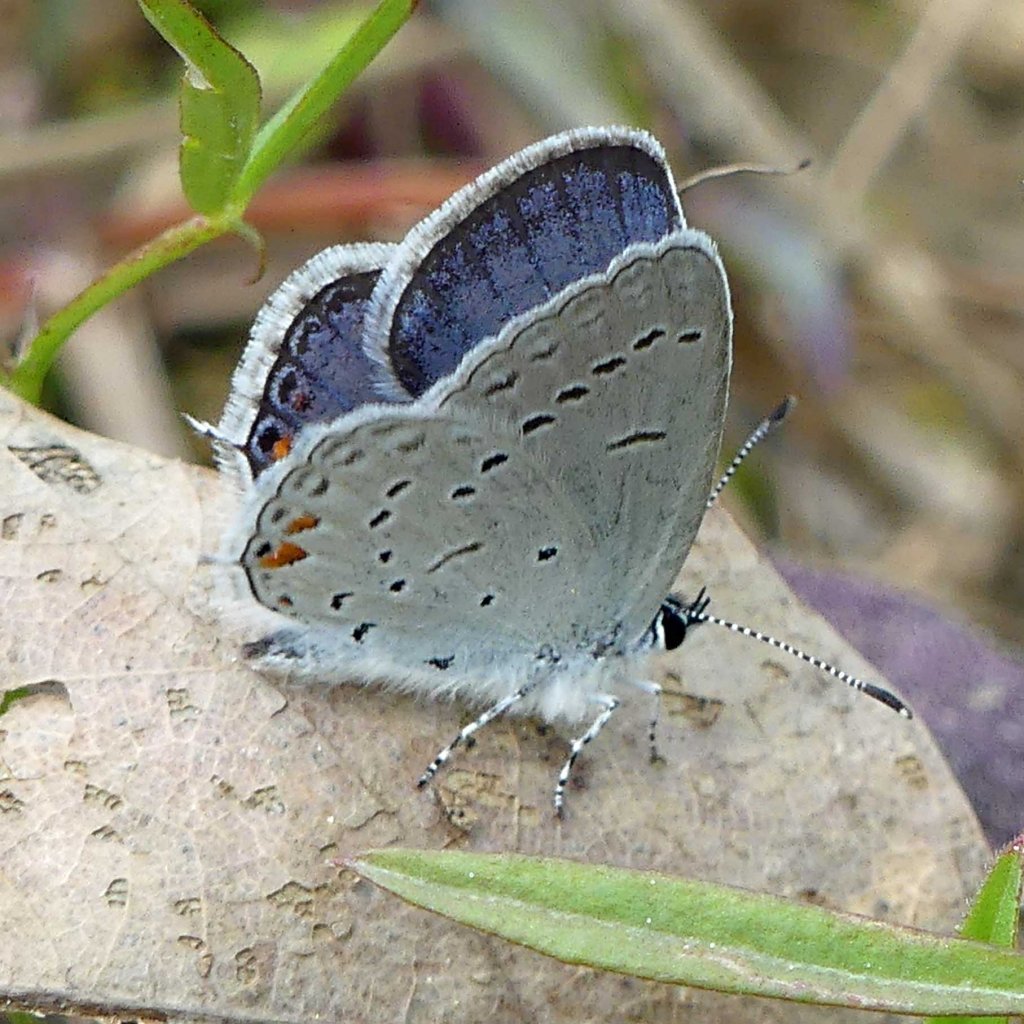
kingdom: Animalia
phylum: Arthropoda
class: Insecta
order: Lepidoptera
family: Lycaenidae
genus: Elkalyce
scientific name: Elkalyce comyntas
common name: Eastern Tailed-Blue
